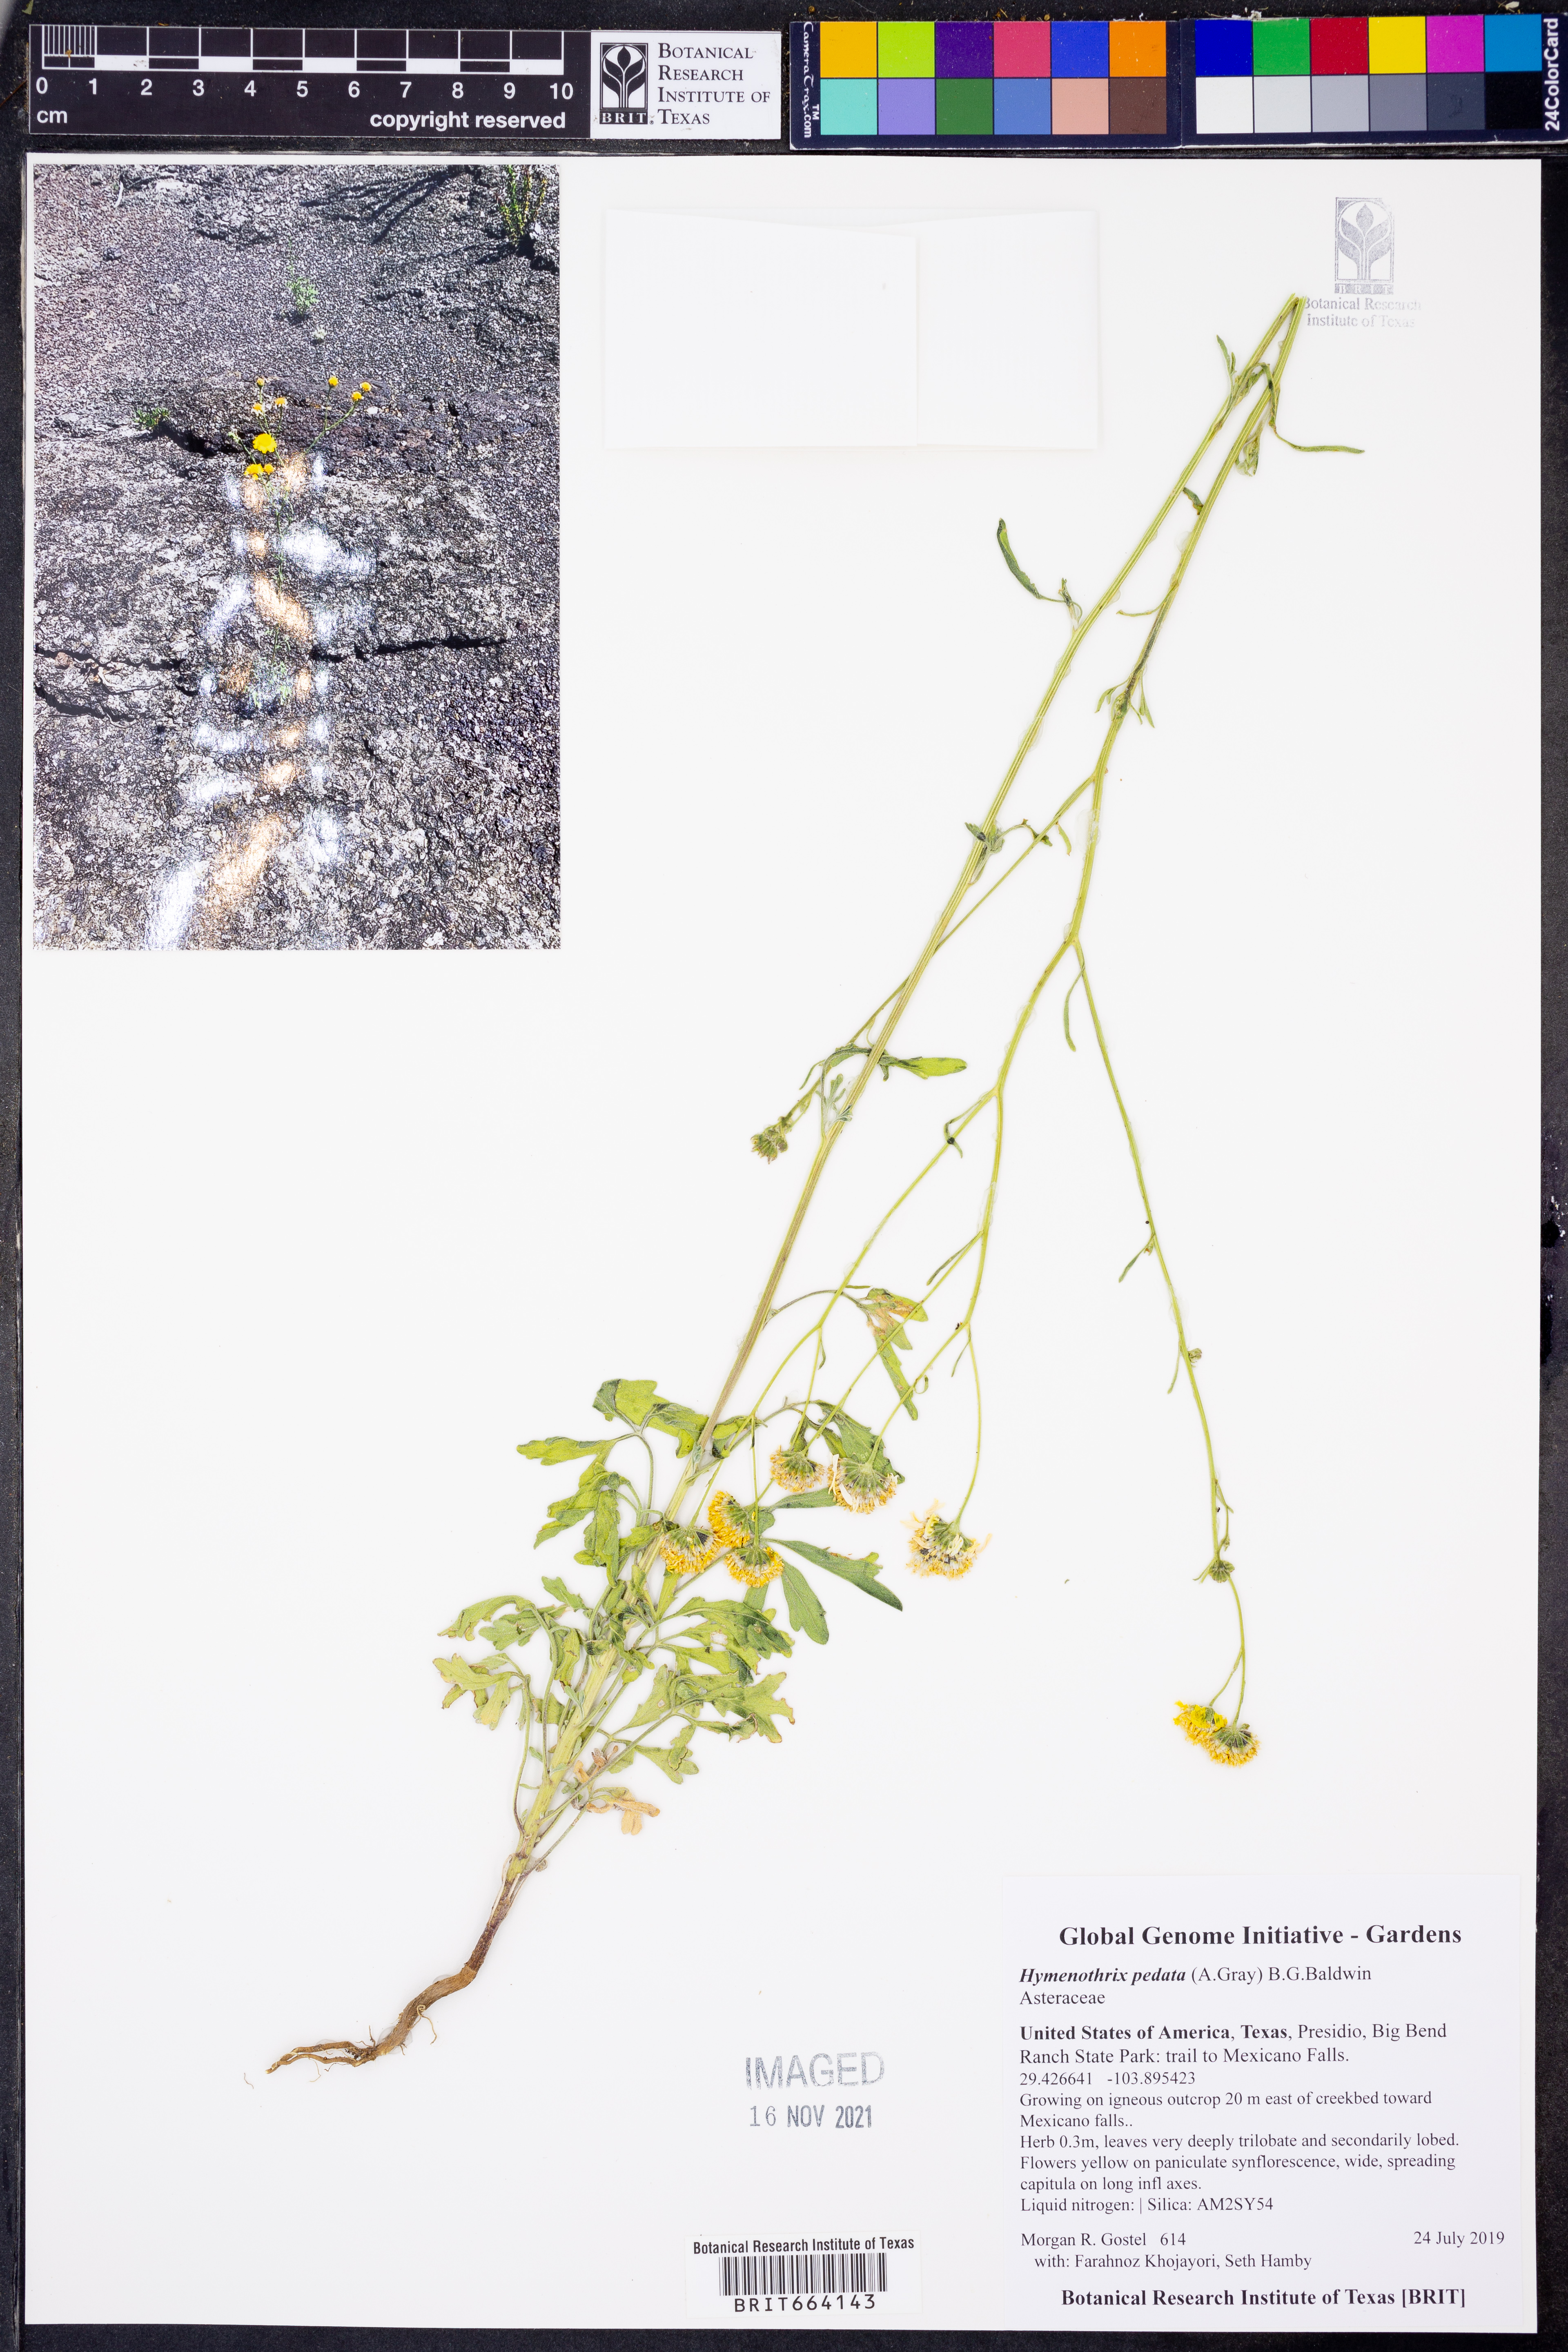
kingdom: Plantae
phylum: Tracheophyta
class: Magnoliopsida
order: Asterales
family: Asteraceae
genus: Hymenothrix
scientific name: Hymenothrix pedata
